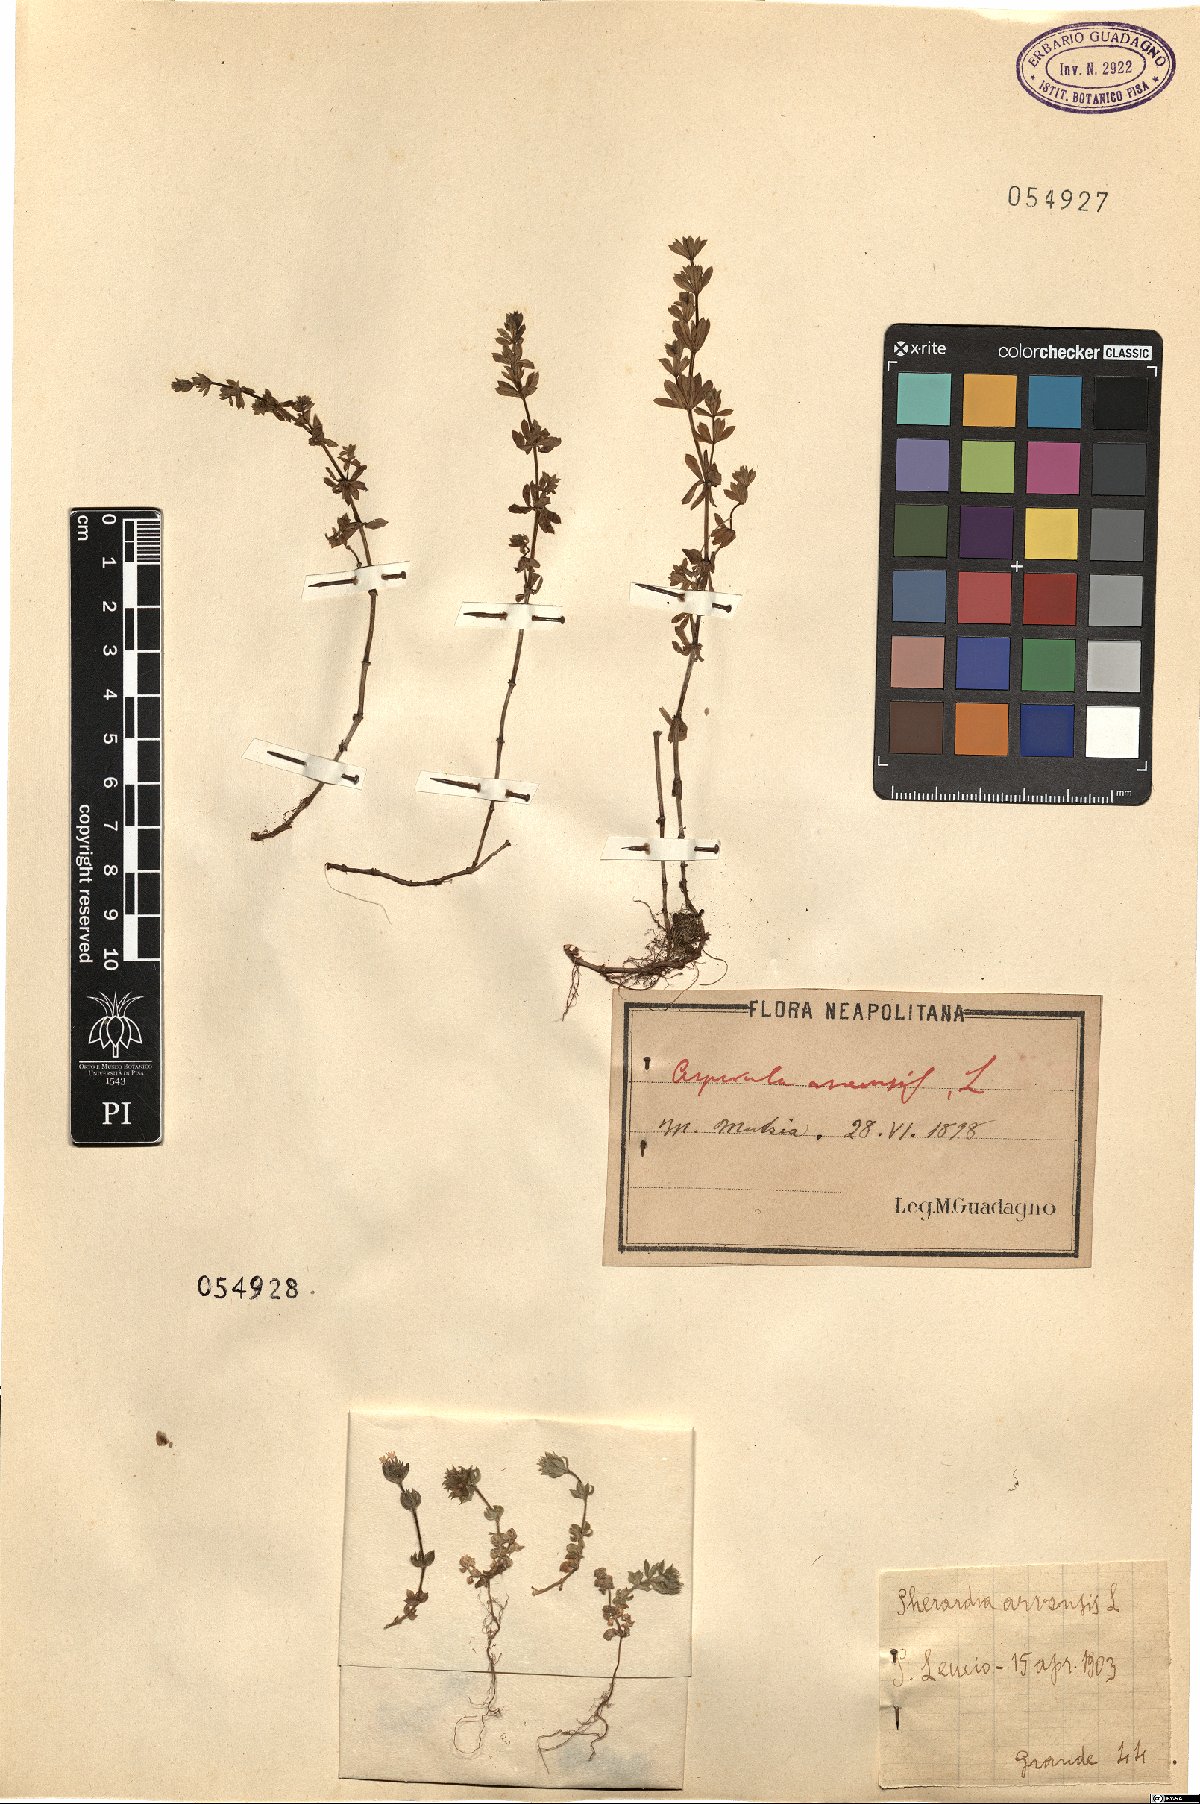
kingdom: Plantae
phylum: Tracheophyta
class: Magnoliopsida
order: Gentianales
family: Rubiaceae
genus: Asperula
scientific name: Asperula arvensis
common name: Blue woodruff
